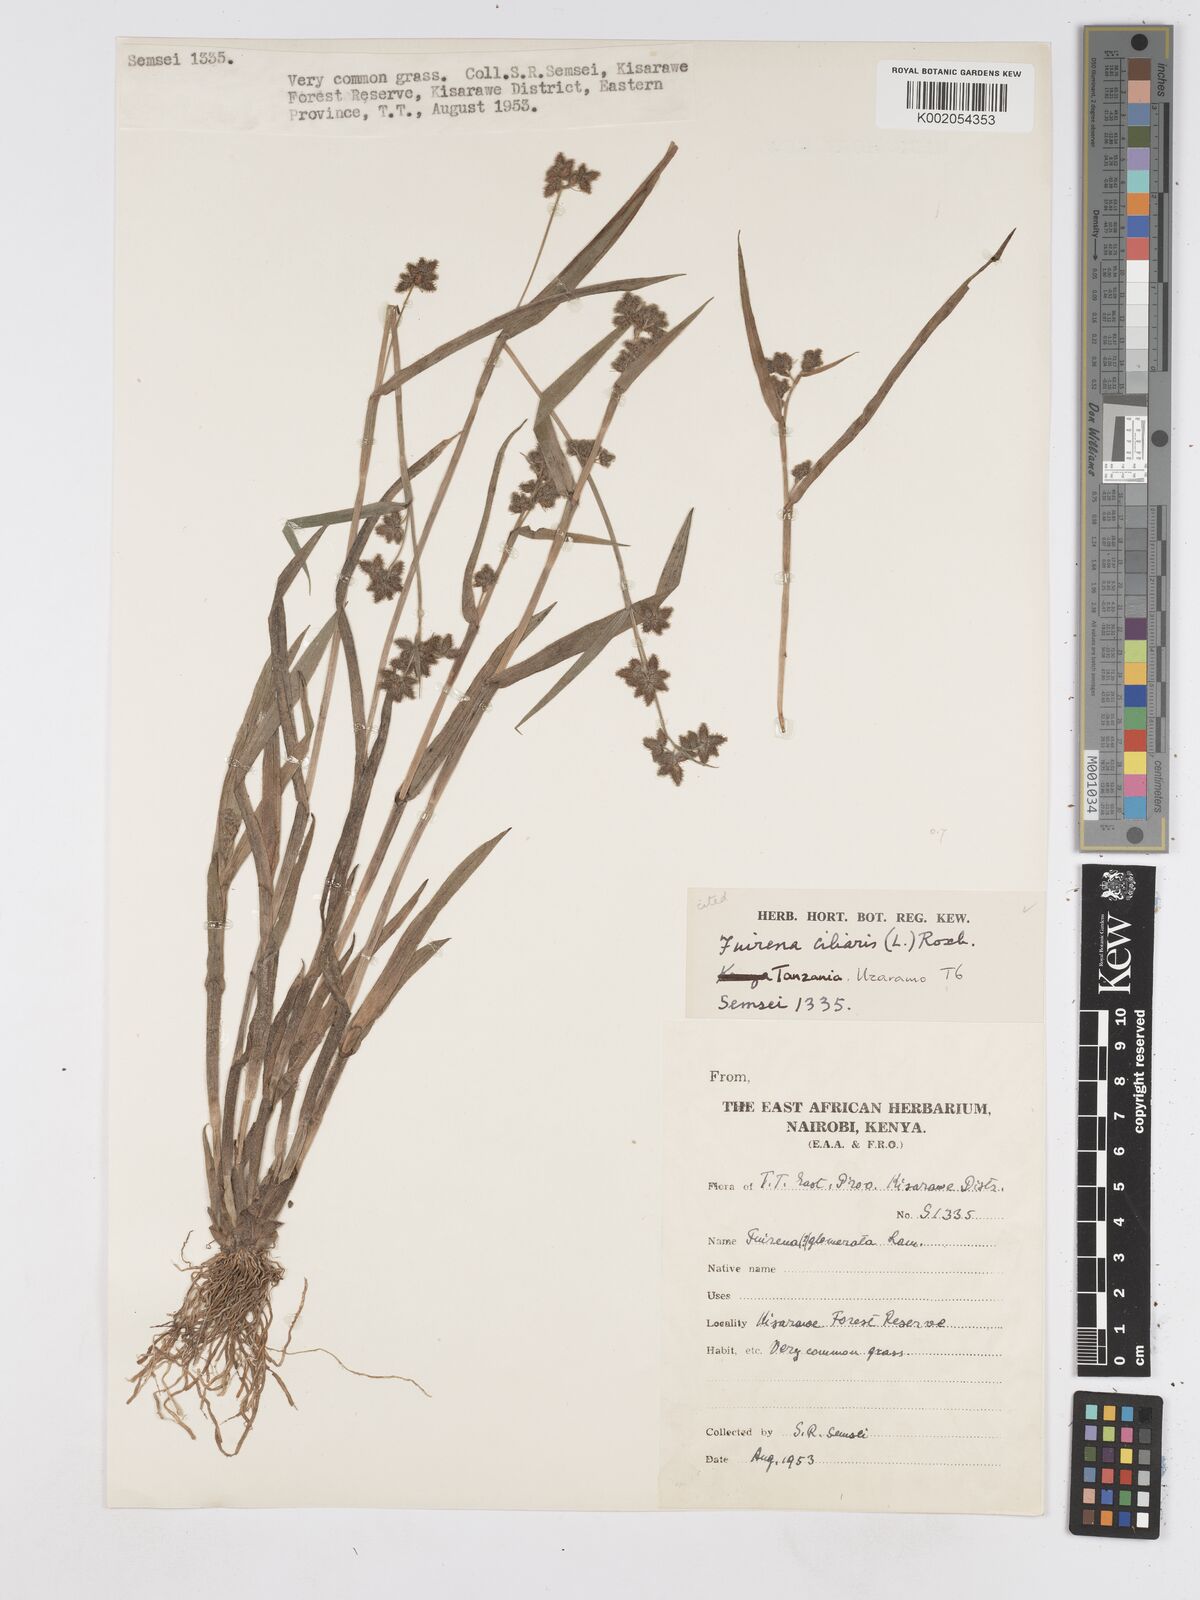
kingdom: Plantae
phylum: Tracheophyta
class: Liliopsida
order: Poales
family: Cyperaceae
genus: Fuirena
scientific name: Fuirena ciliaris
